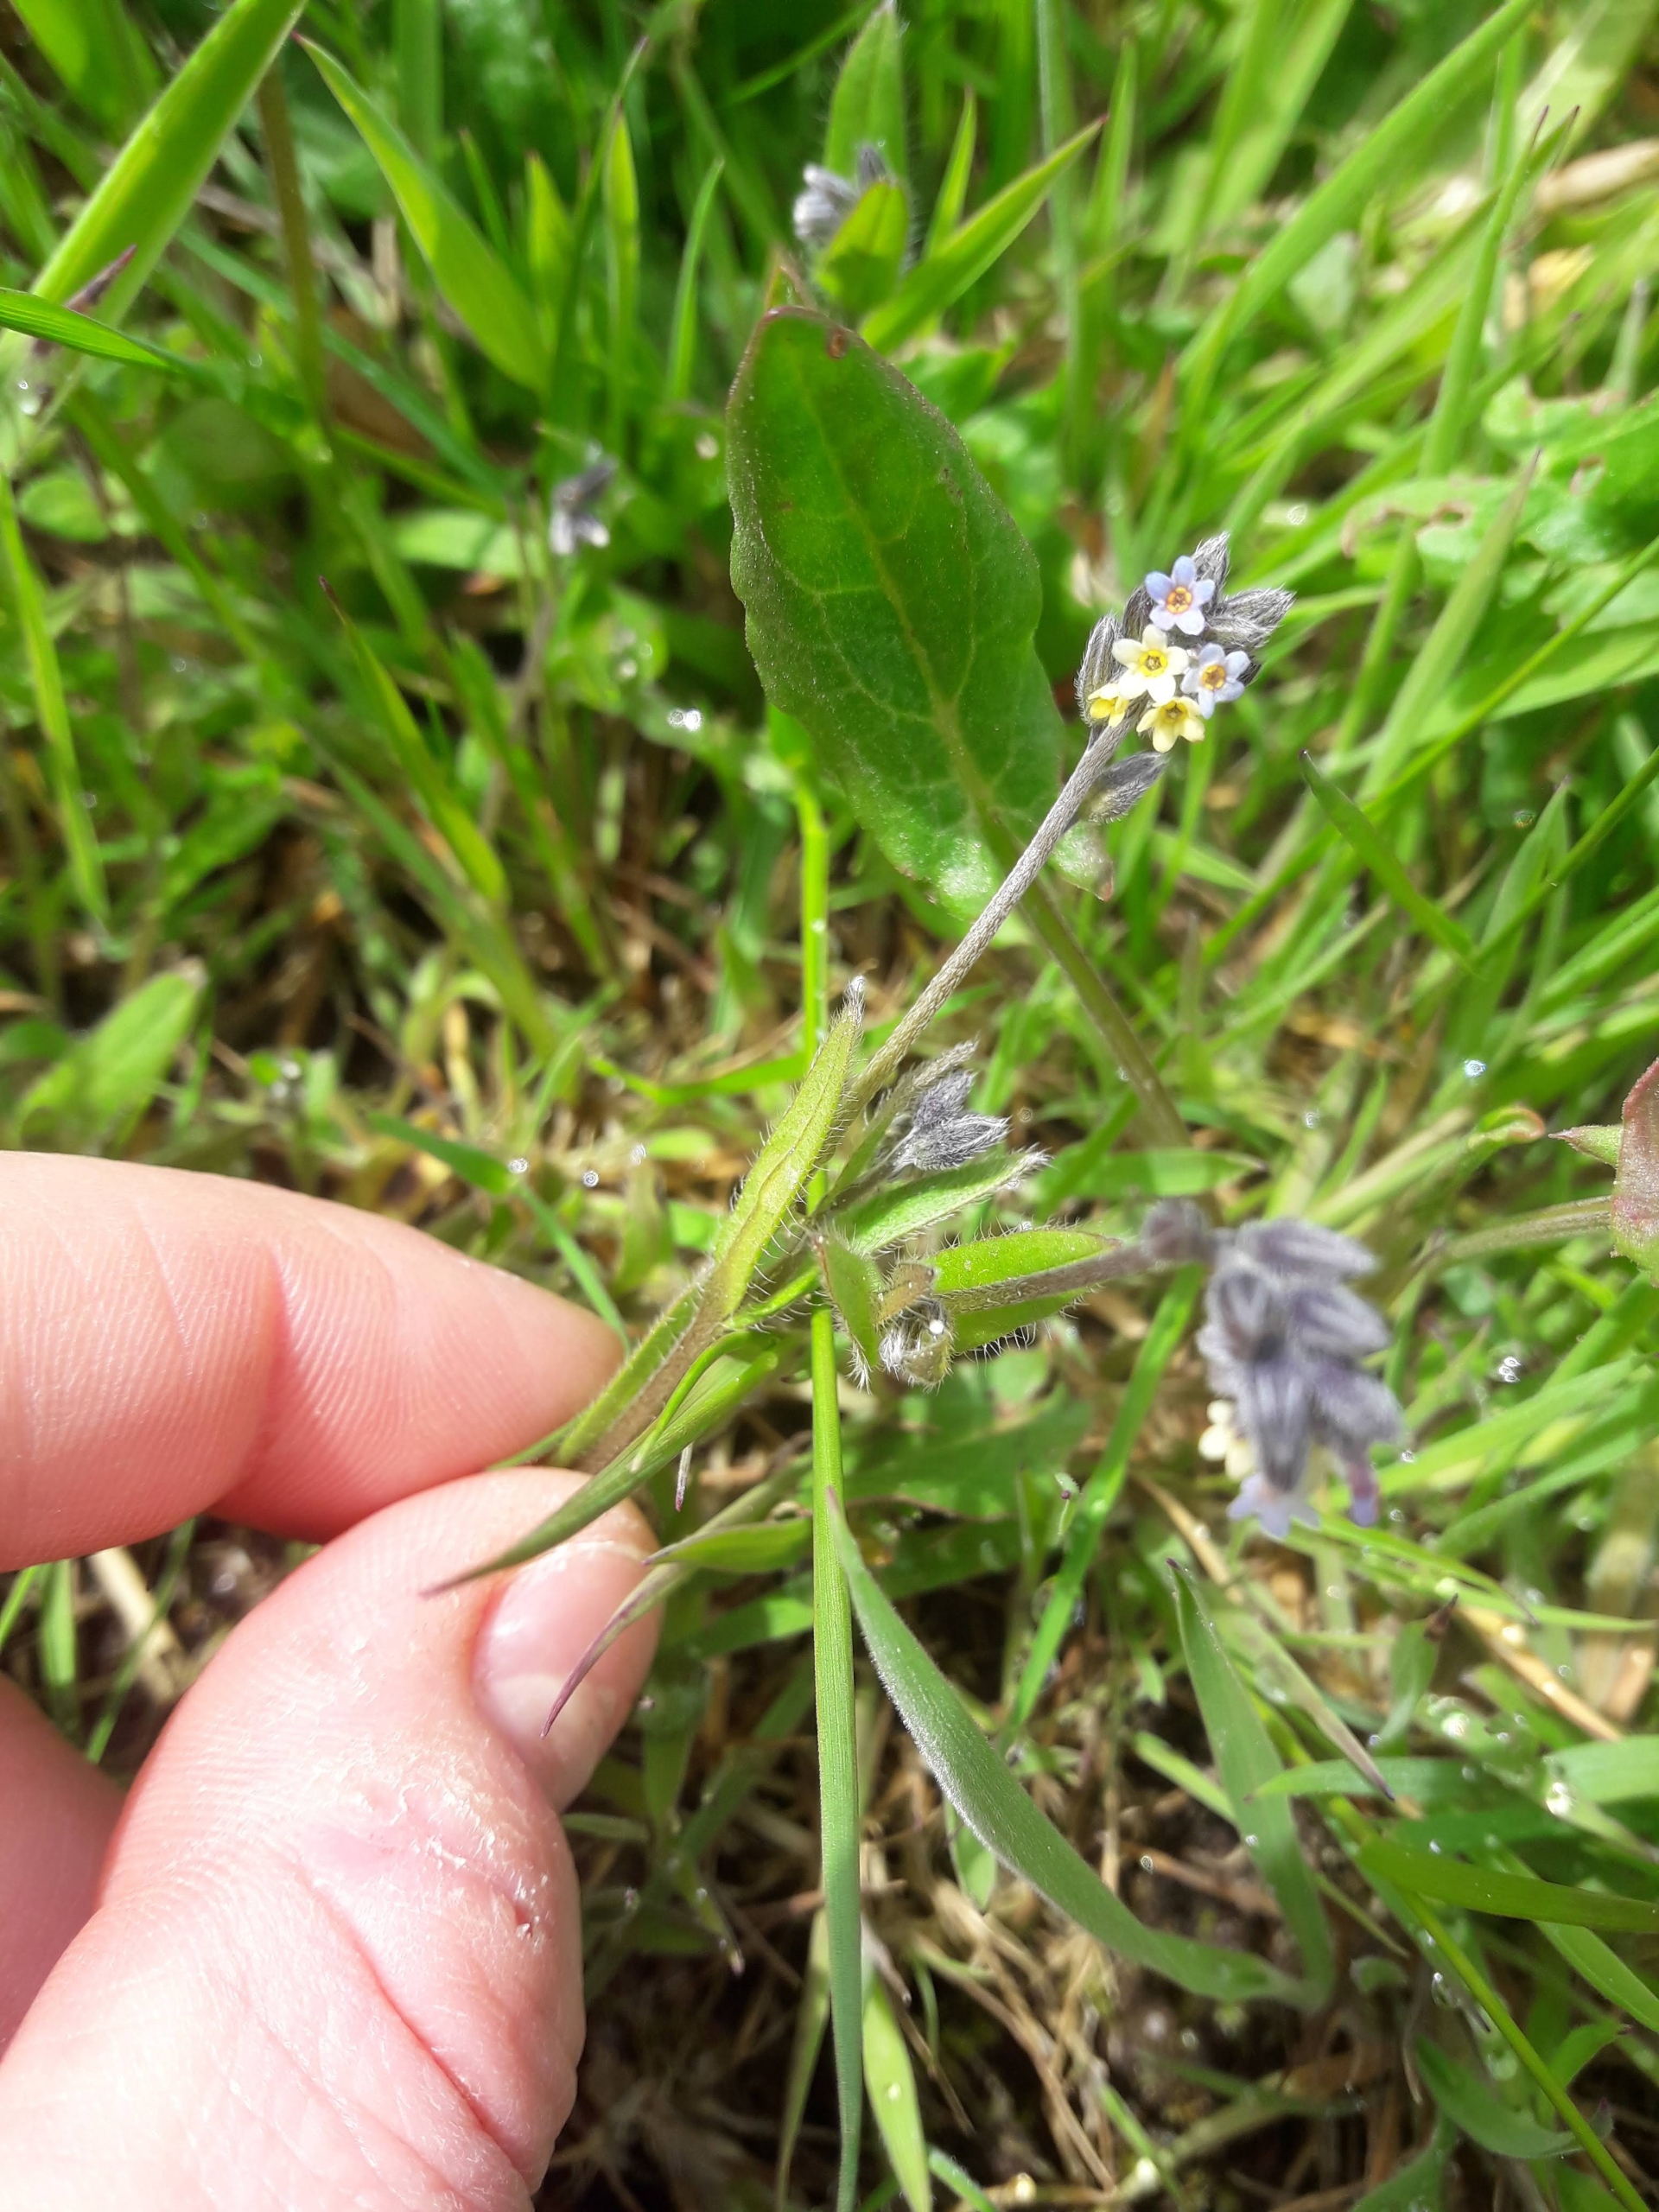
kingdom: Plantae
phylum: Tracheophyta
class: Magnoliopsida
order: Boraginales
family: Boraginaceae
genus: Myosotis
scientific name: Myosotis discolor
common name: Forskelligfarvet forglemmigej
